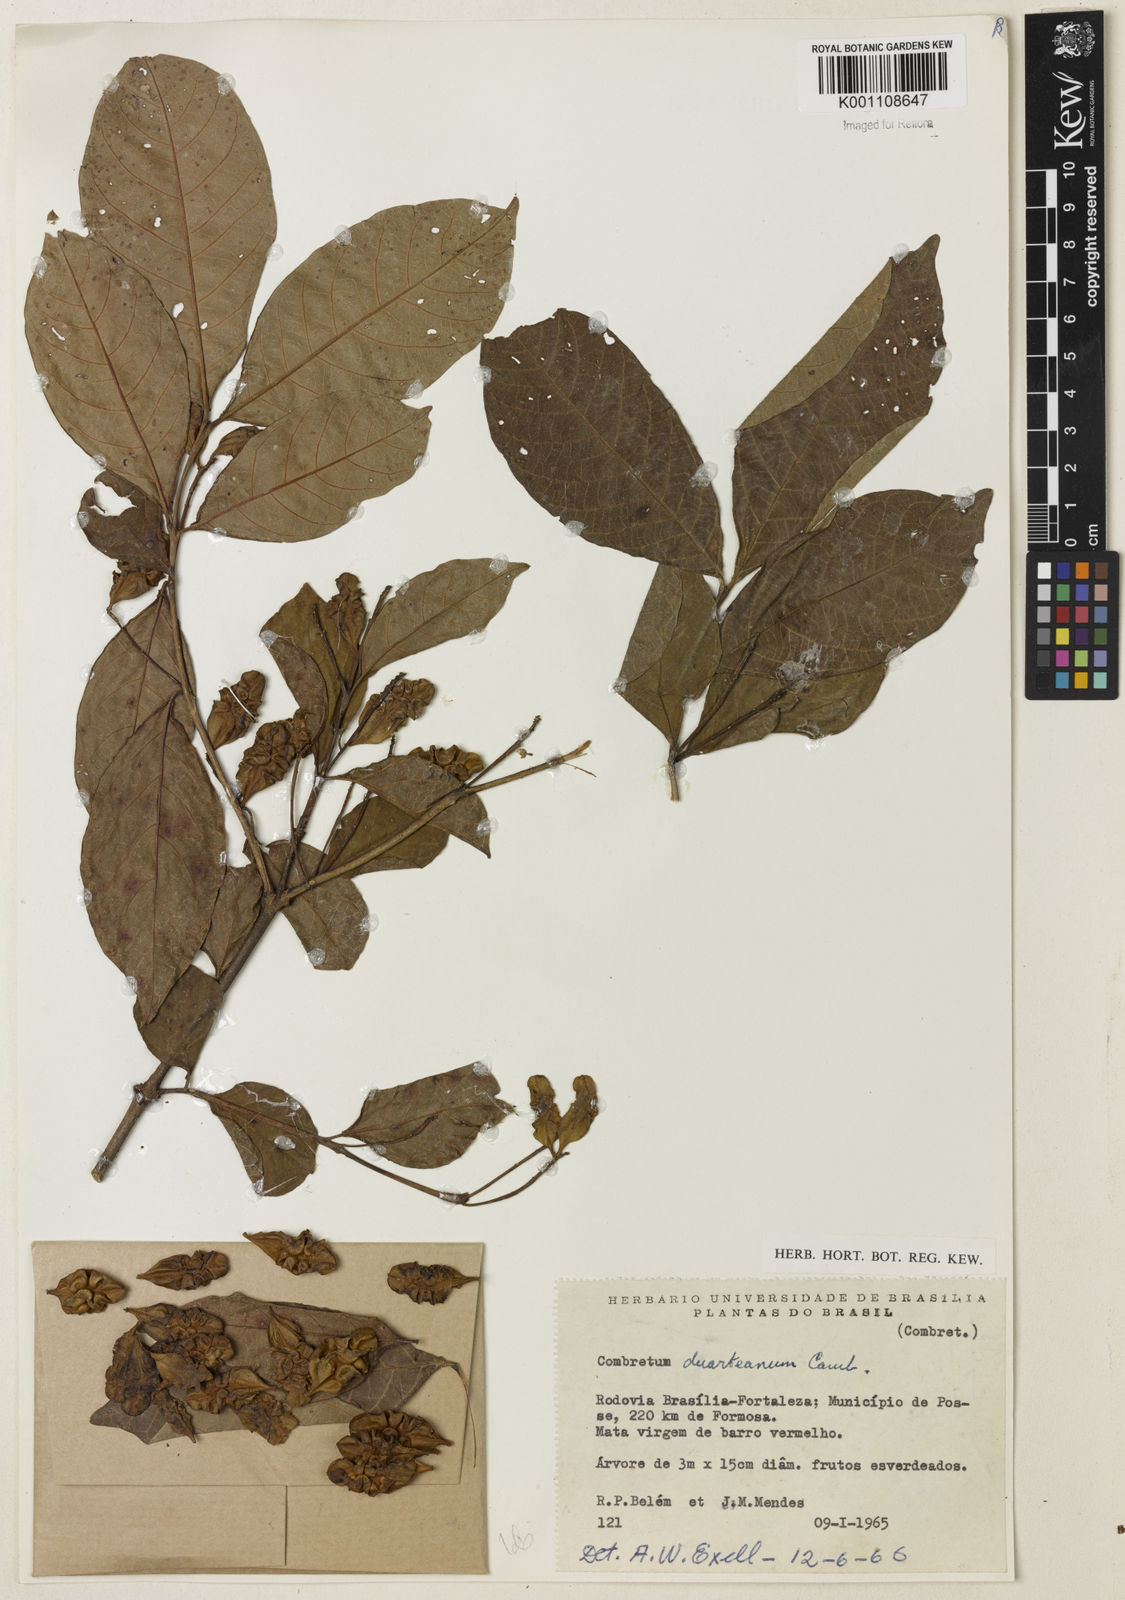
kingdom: Plantae
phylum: Tracheophyta
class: Magnoliopsida
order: Myrtales
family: Combretaceae
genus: Combretum
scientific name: Combretum duarteanum
